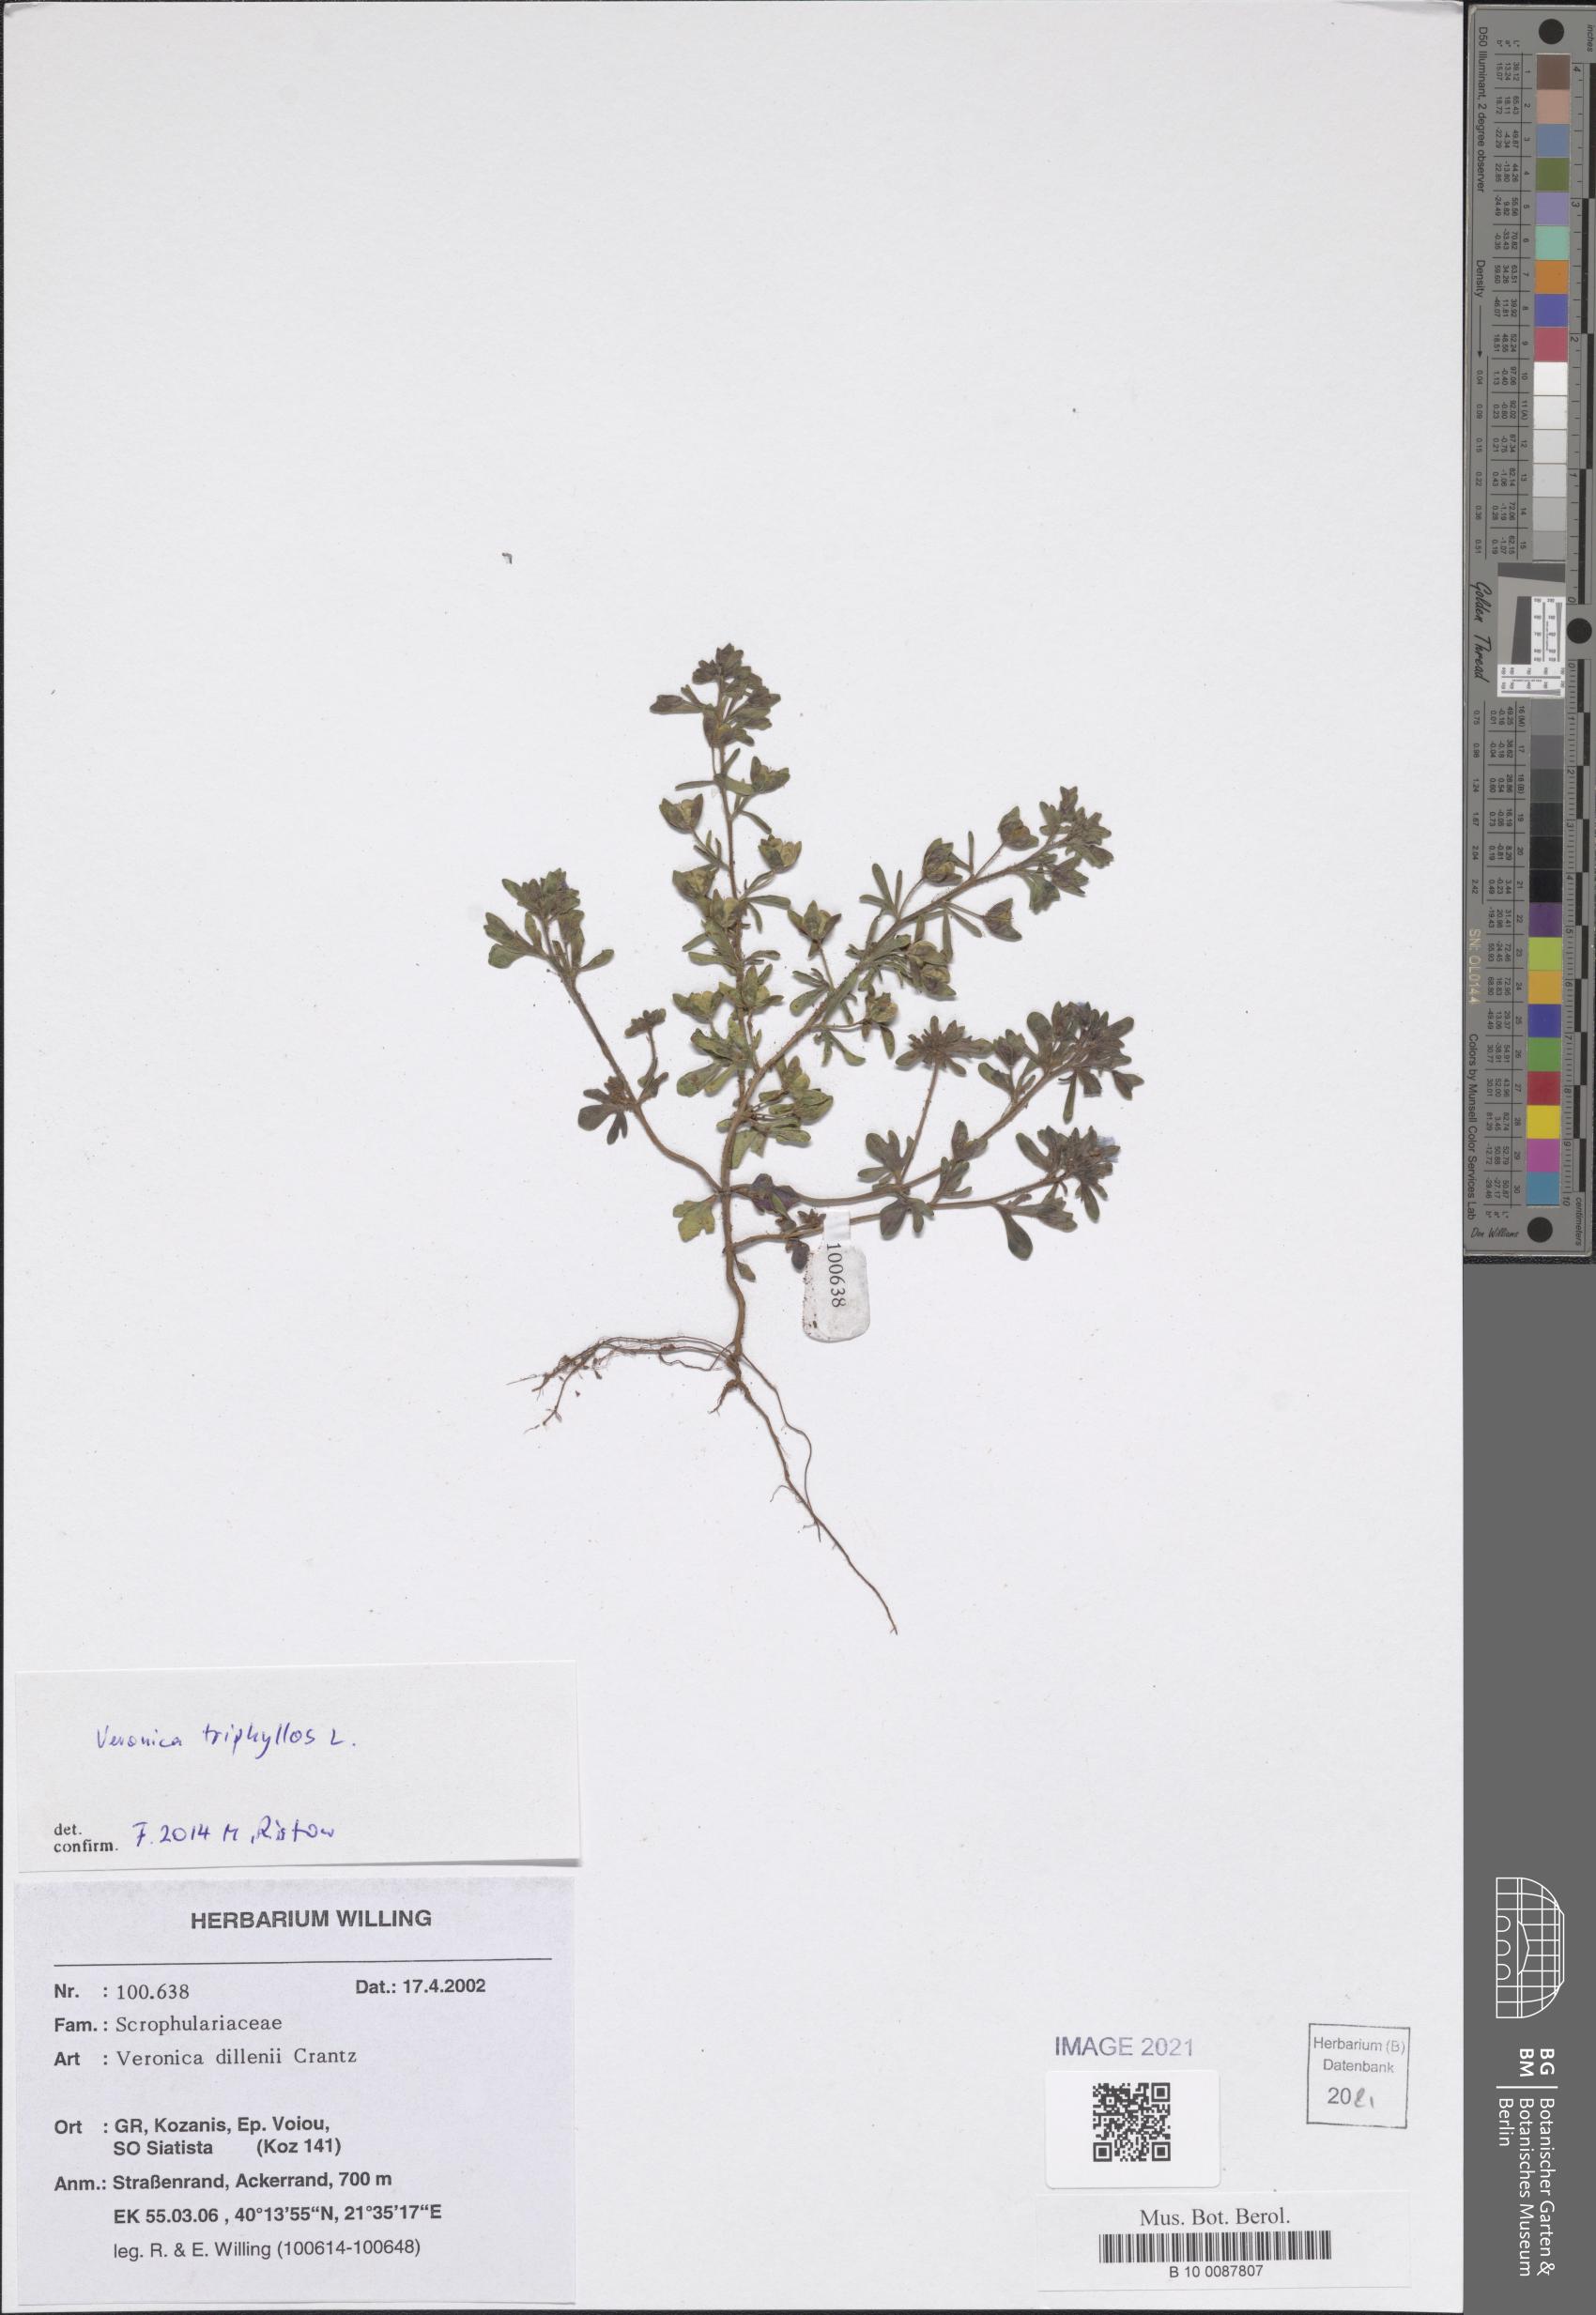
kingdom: Plantae
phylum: Tracheophyta
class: Magnoliopsida
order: Lamiales
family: Plantaginaceae
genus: Veronica
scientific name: Veronica triphyllos
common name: Fingered speedwell
